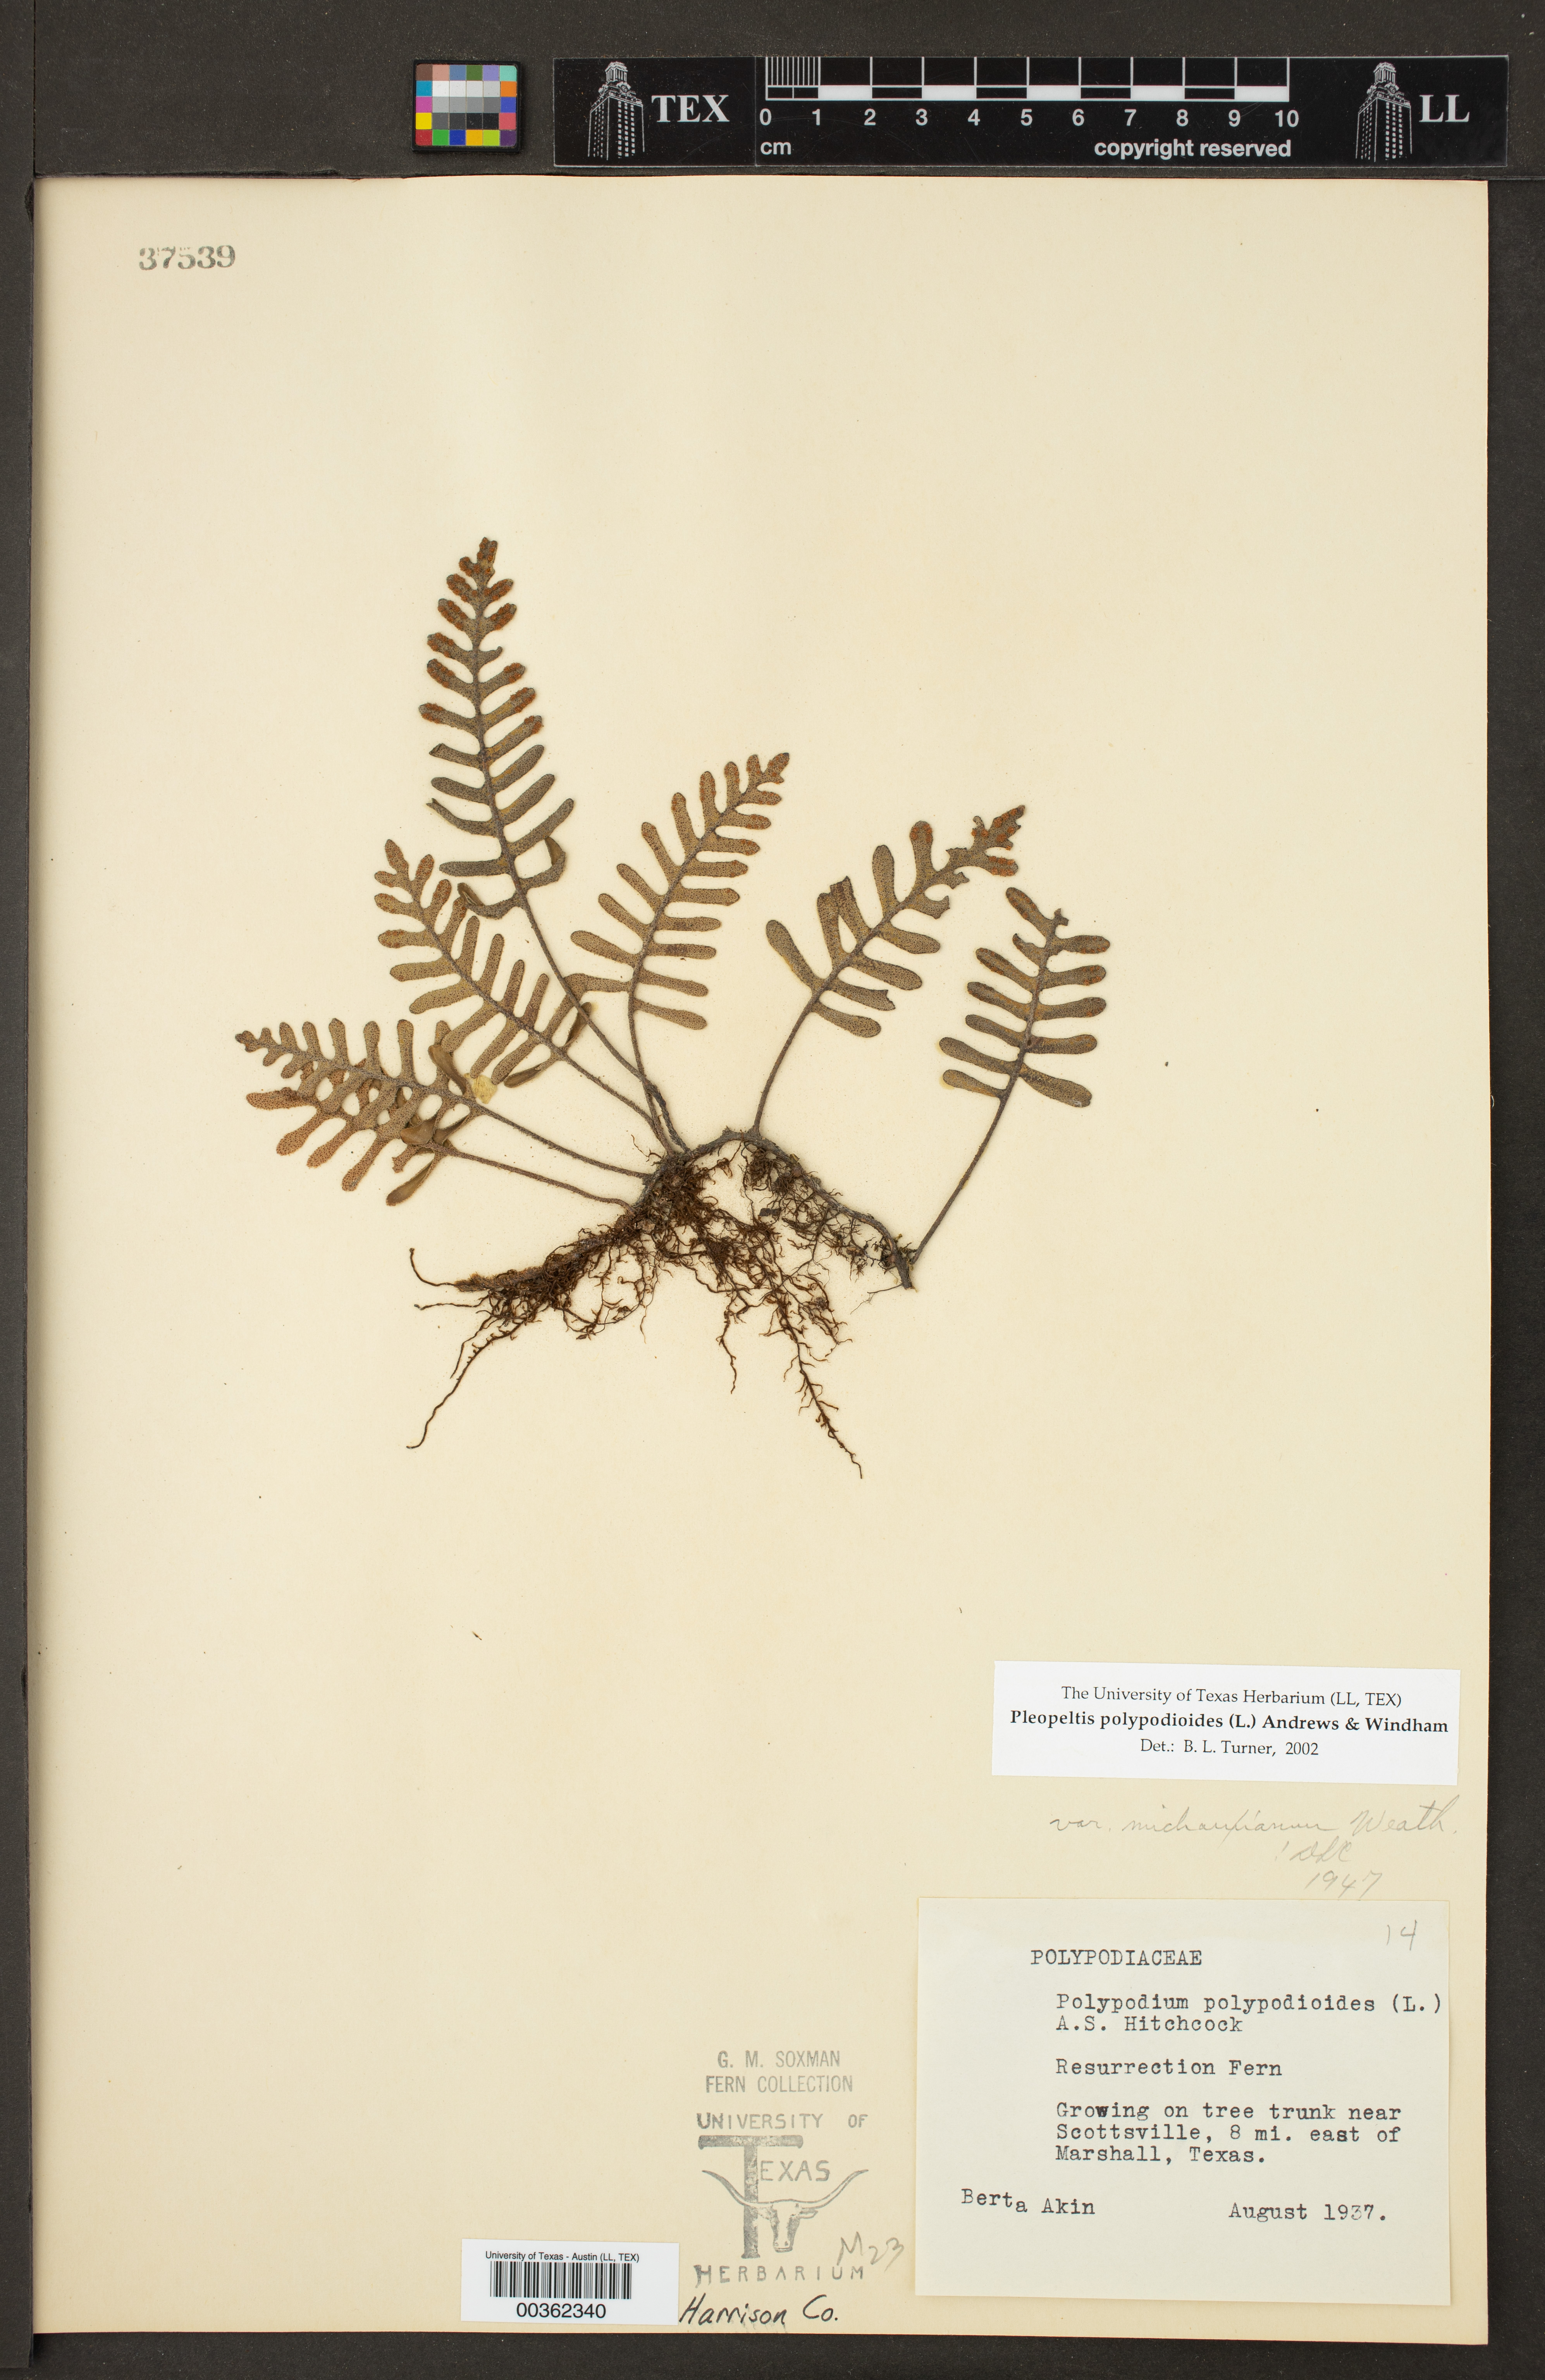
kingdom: Plantae
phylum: Tracheophyta
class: Polypodiopsida
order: Polypodiales
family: Polypodiaceae
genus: Pleopeltis
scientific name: Pleopeltis polypodioides
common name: Resurrection fern
